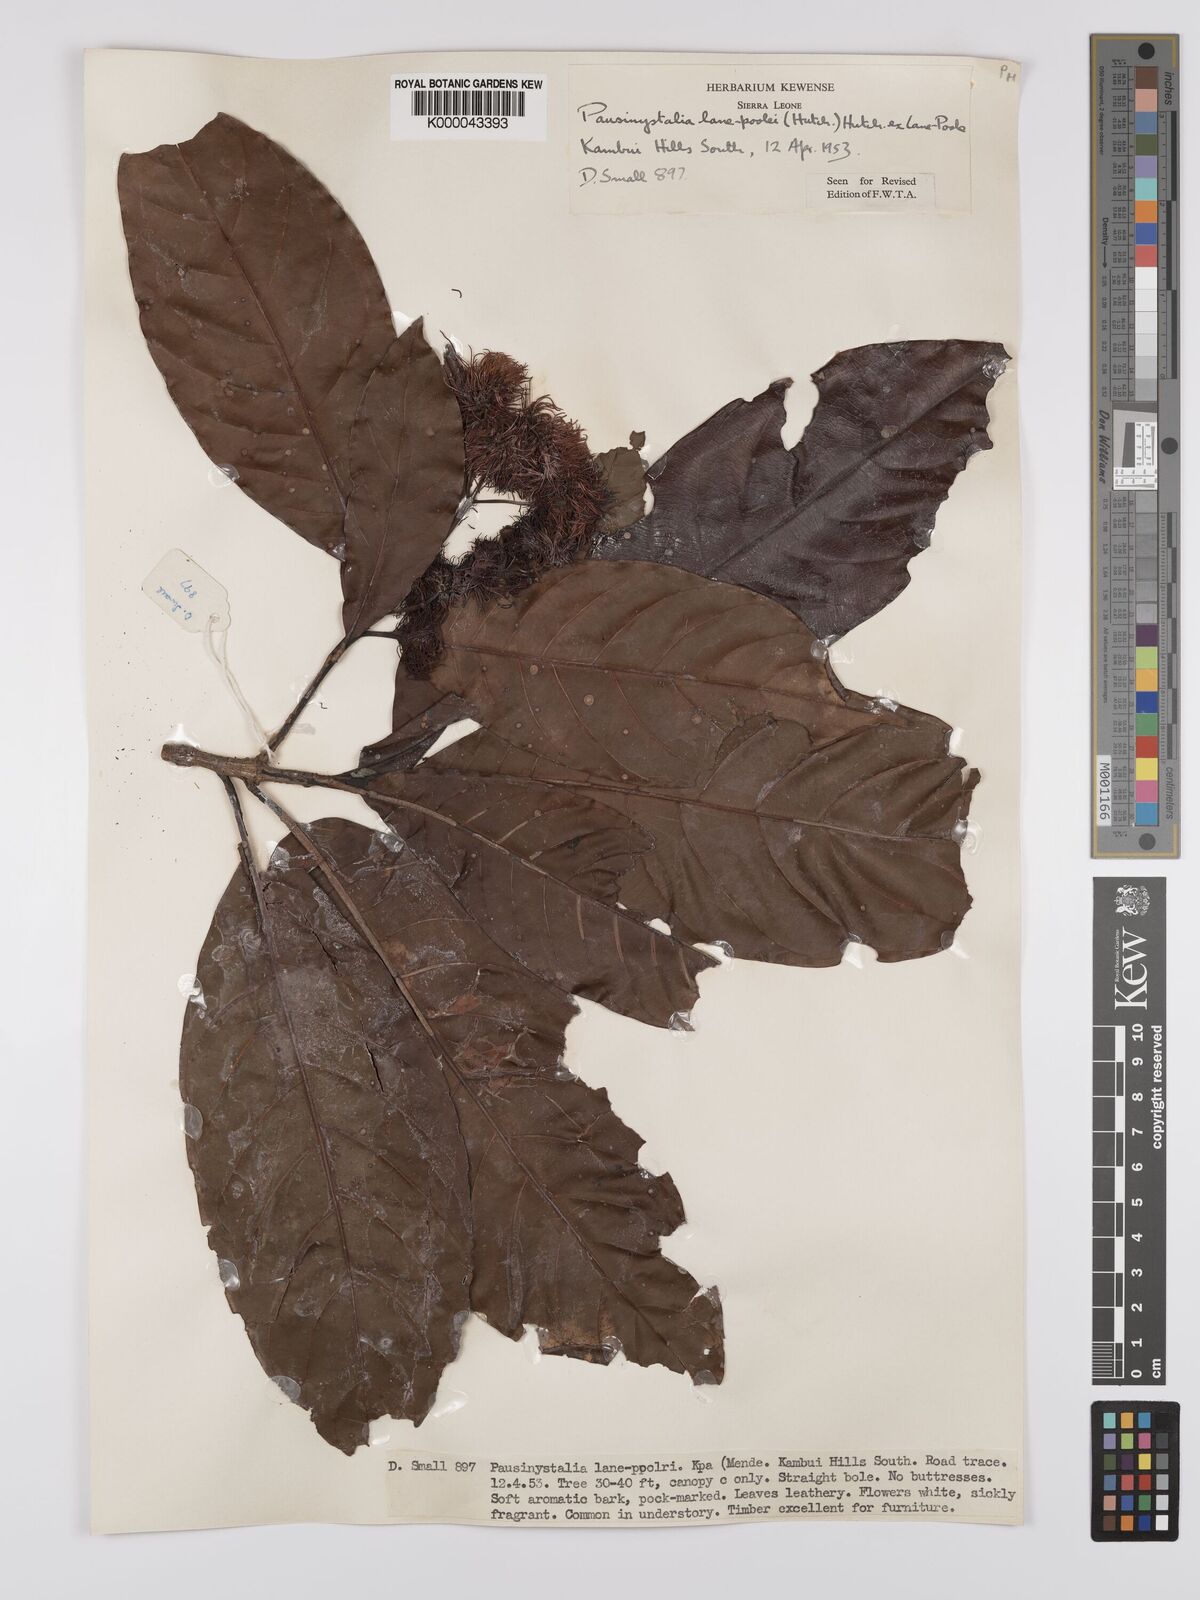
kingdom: Plantae
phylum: Tracheophyta
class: Magnoliopsida
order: Gentianales
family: Rubiaceae
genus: Corynanthe
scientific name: Corynanthe lane-poolei
